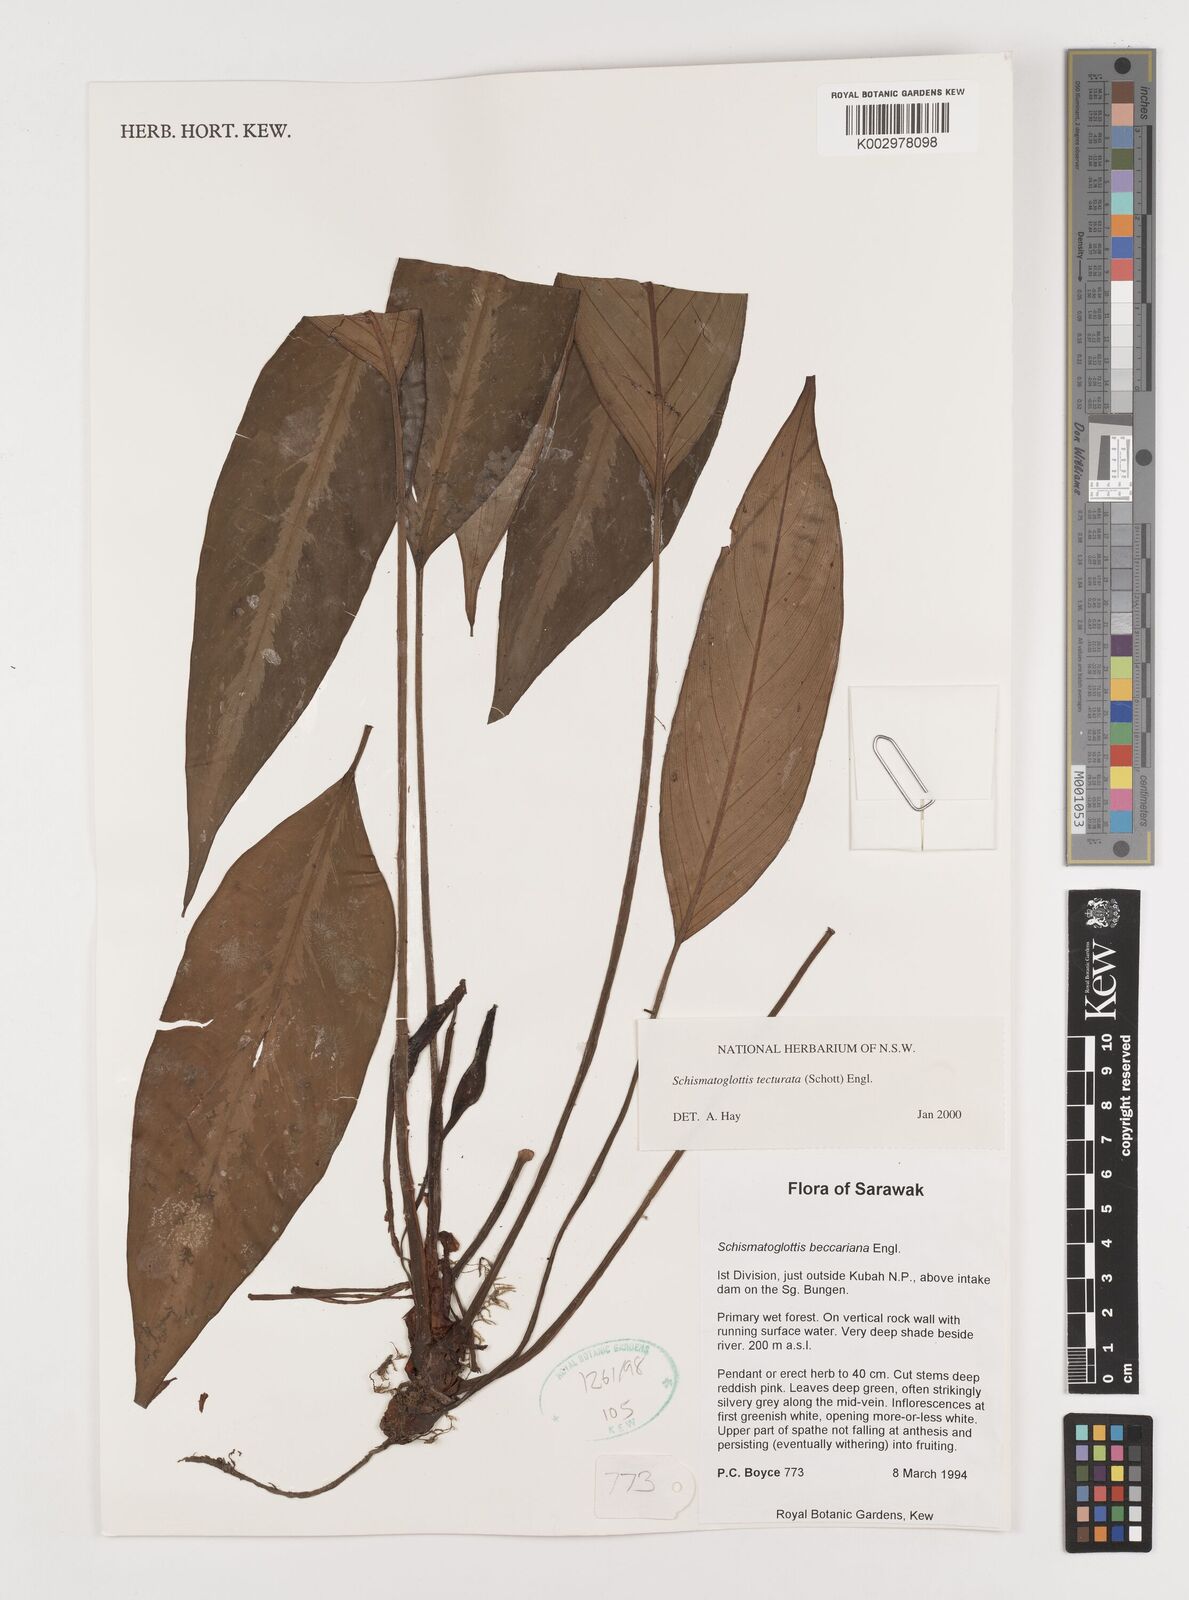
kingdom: Plantae
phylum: Tracheophyta
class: Liliopsida
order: Zingiberales
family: Costaceae
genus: Colobogynium
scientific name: Colobogynium variegatum
